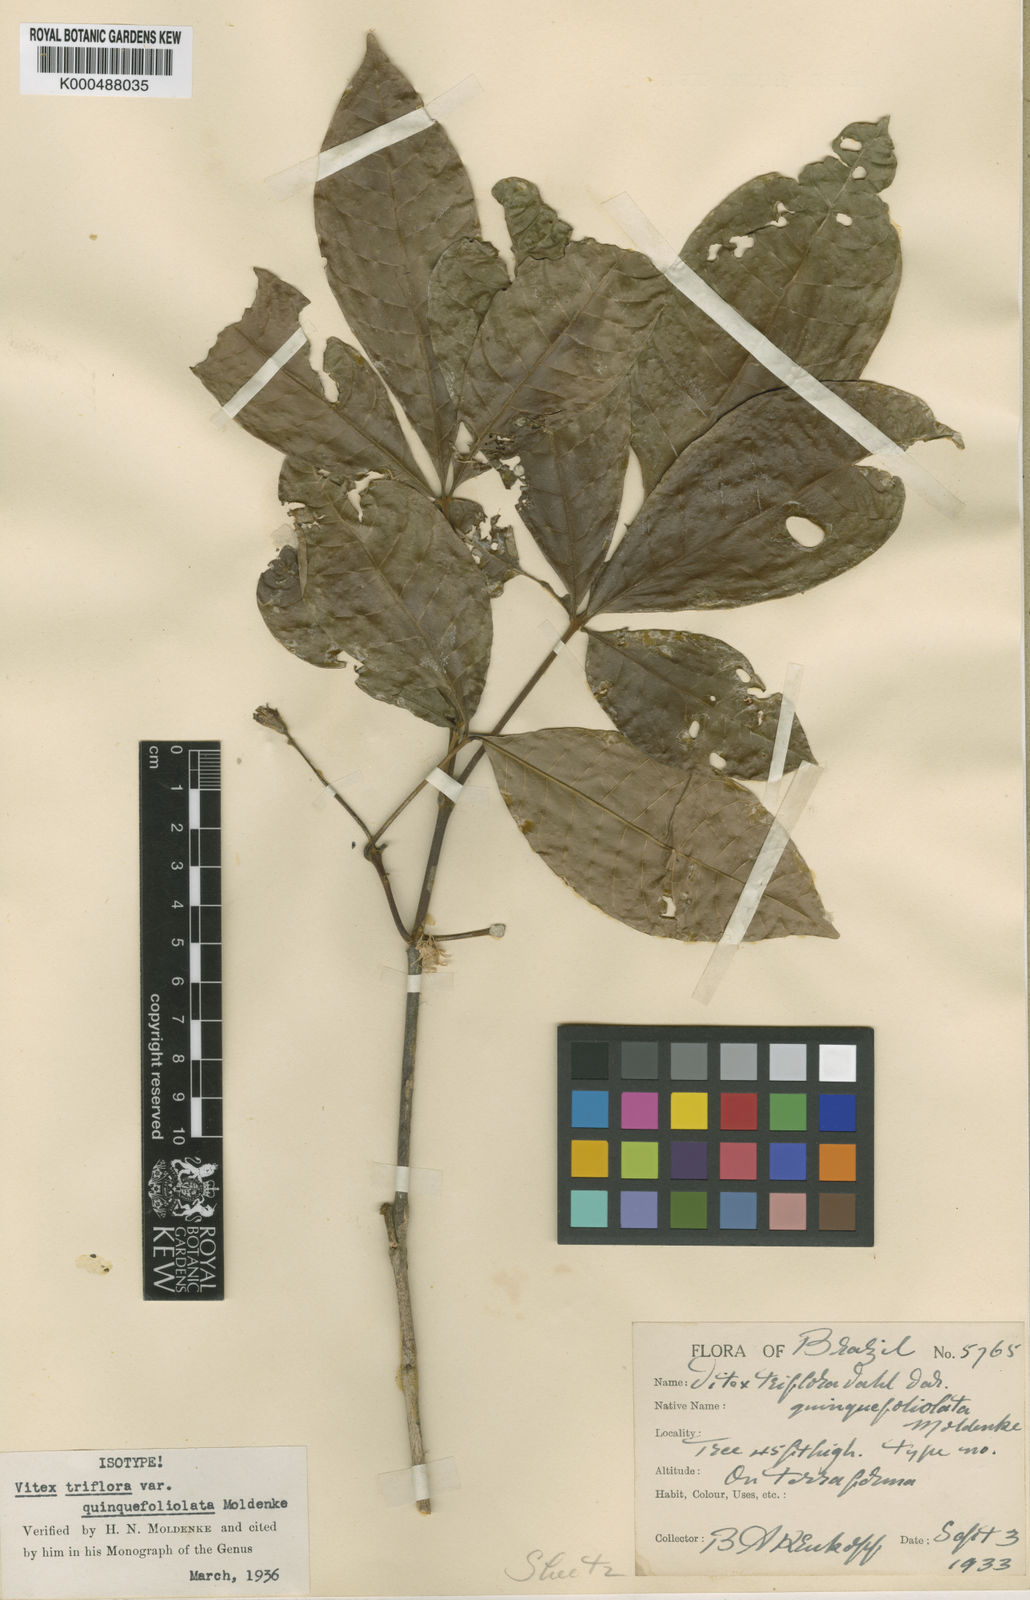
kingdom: Plantae
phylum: Tracheophyta
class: Magnoliopsida
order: Lamiales
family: Lamiaceae
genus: Vitex
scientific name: Vitex triflora
